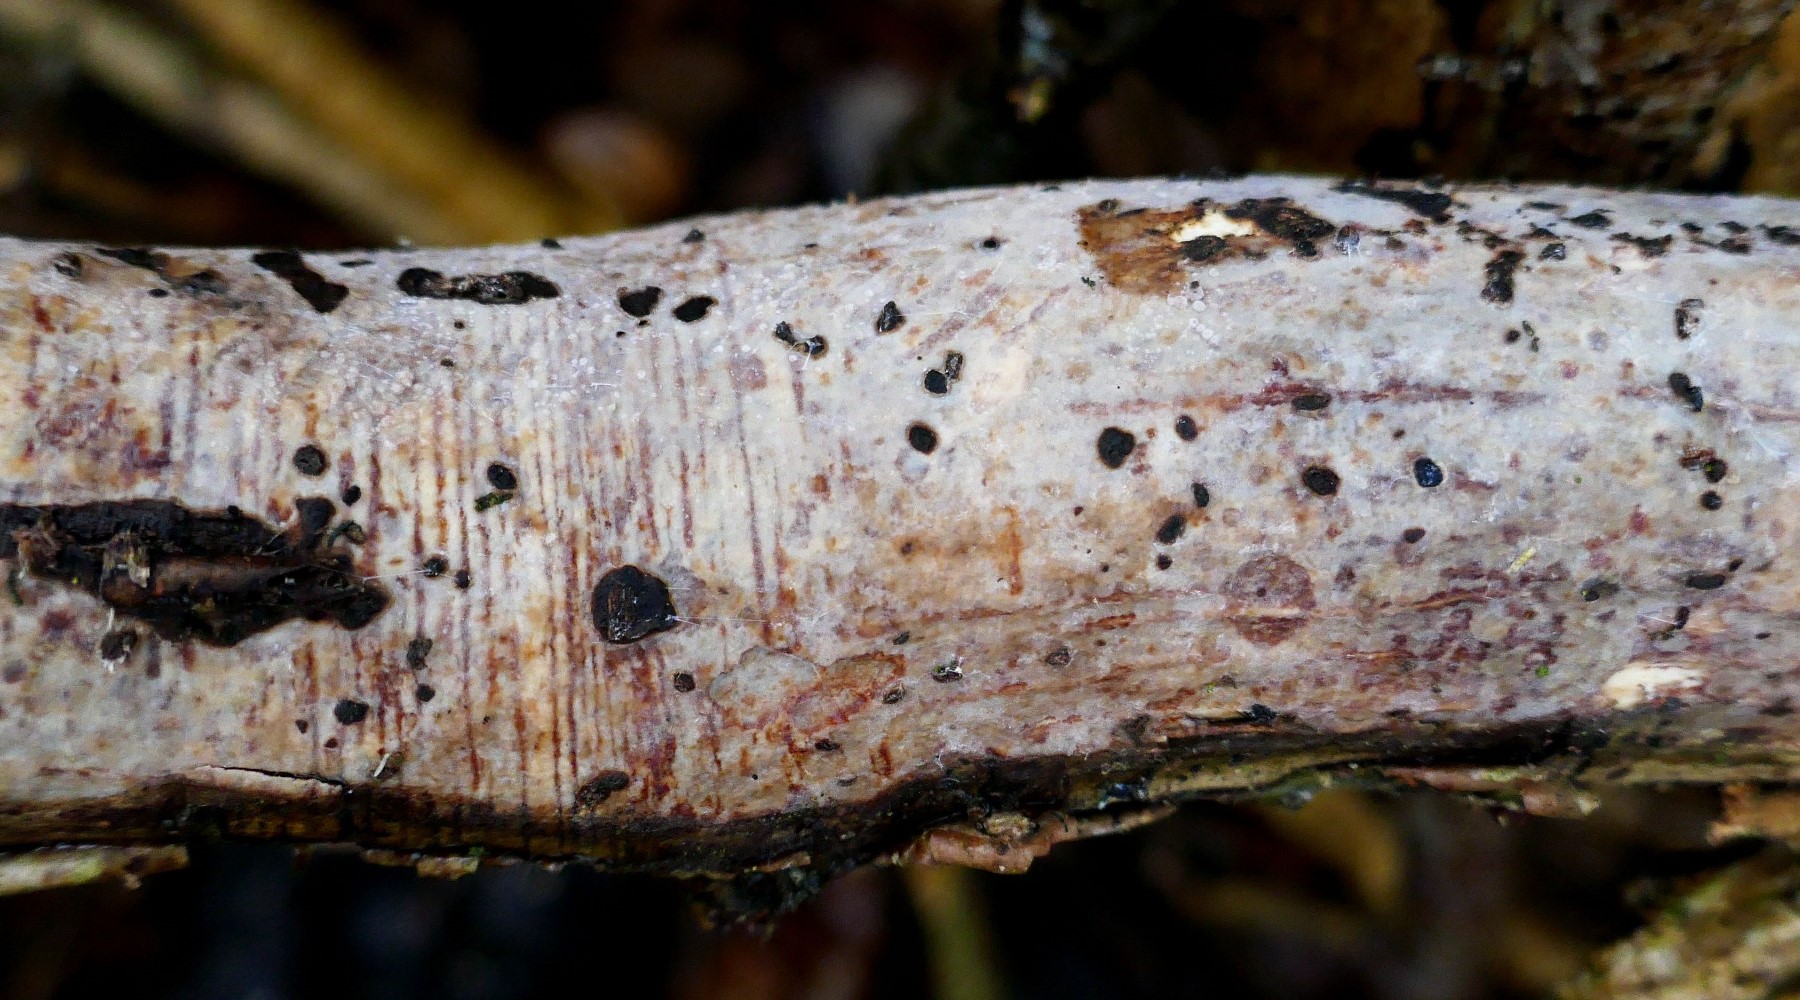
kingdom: Fungi
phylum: Basidiomycota
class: Agaricomycetes
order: Corticiales
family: Vuilleminiaceae
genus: Vuilleminia
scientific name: Vuilleminia comedens
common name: almindelig barksprænger
